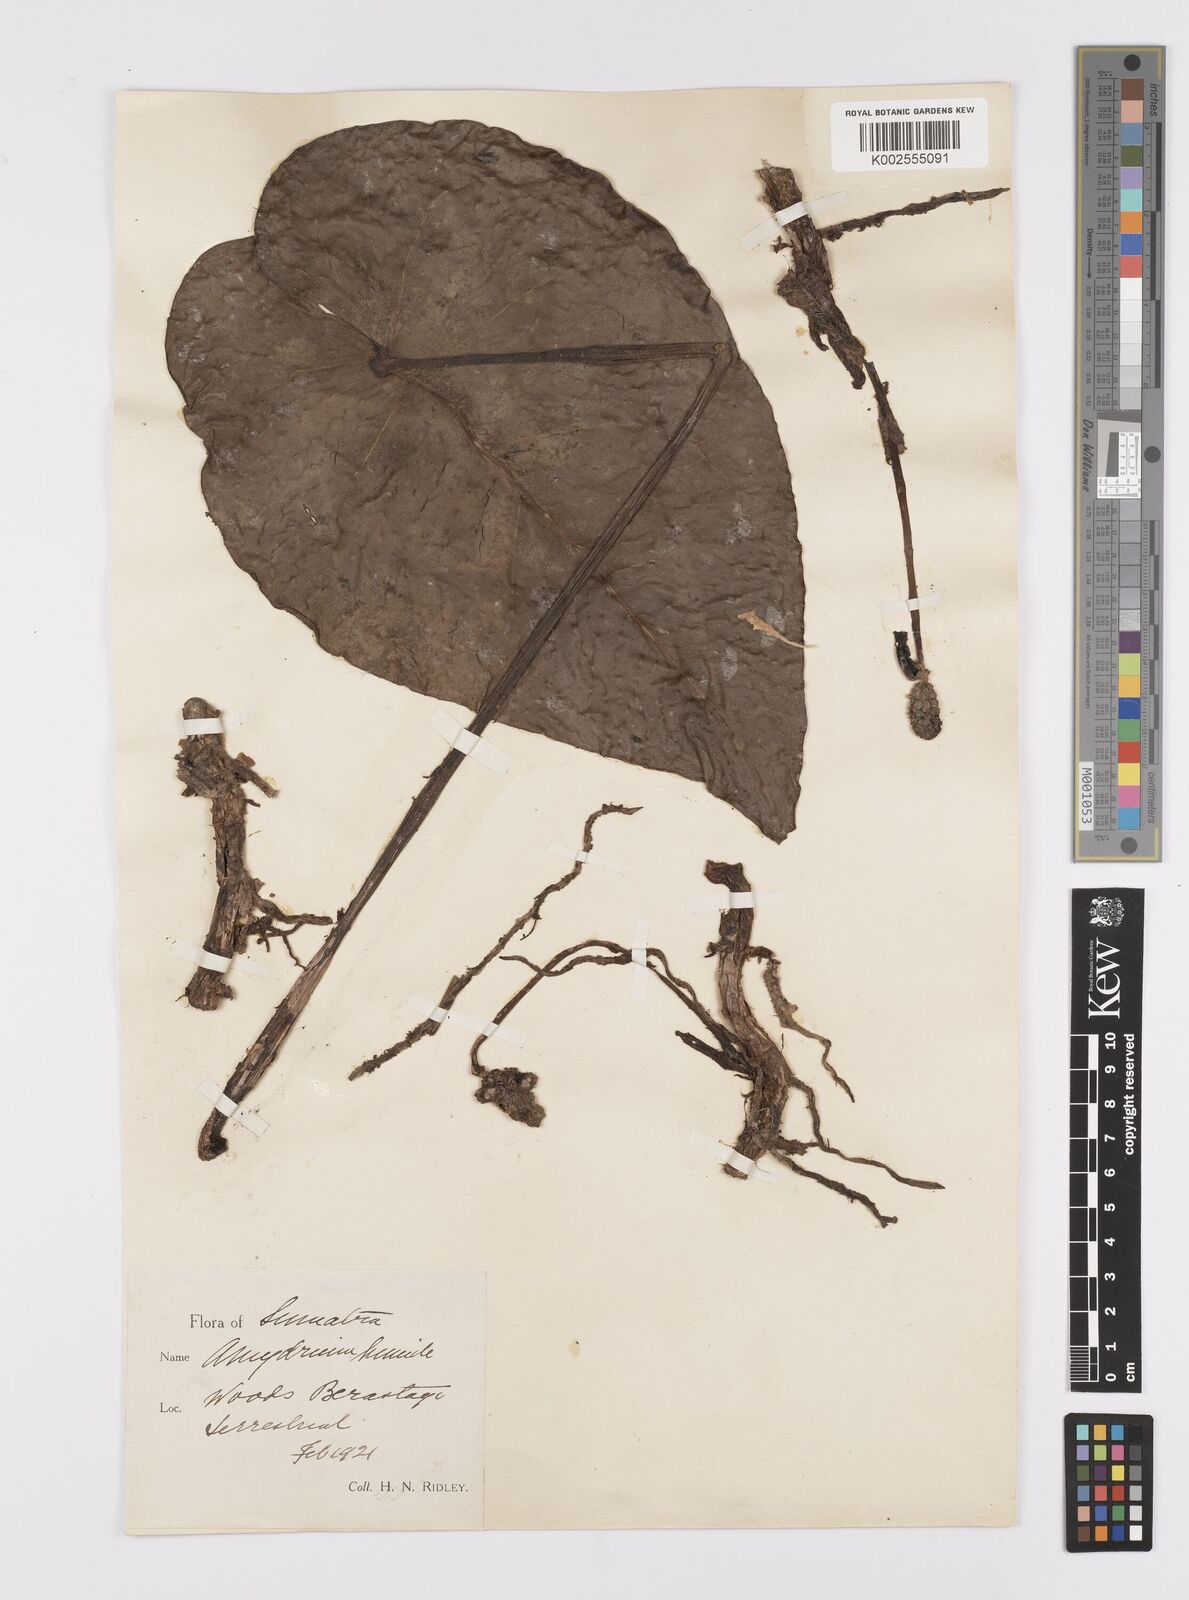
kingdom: Plantae
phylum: Tracheophyta
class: Liliopsida
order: Alismatales
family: Araceae
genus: Amydrium
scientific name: Amydrium humile
